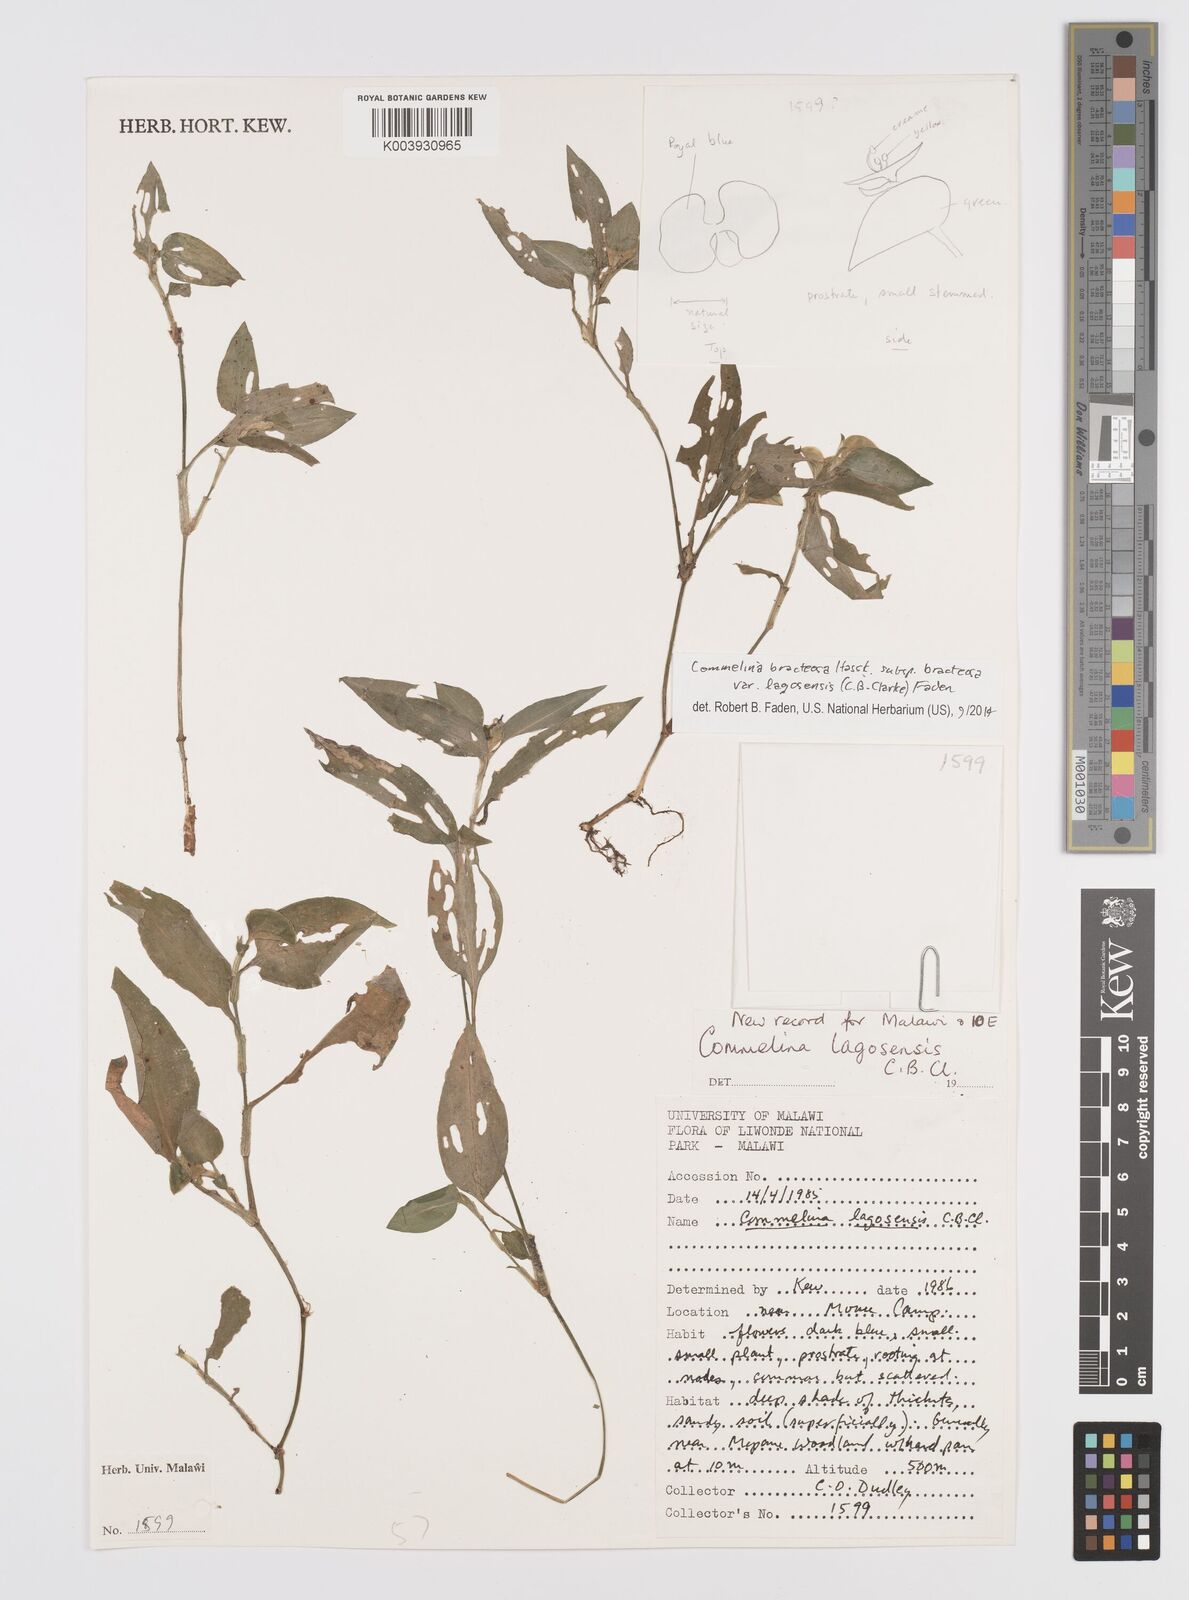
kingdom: Plantae
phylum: Tracheophyta
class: Liliopsida
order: Commelinales
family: Commelinaceae
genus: Commelina
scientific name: Commelina bracteosa
